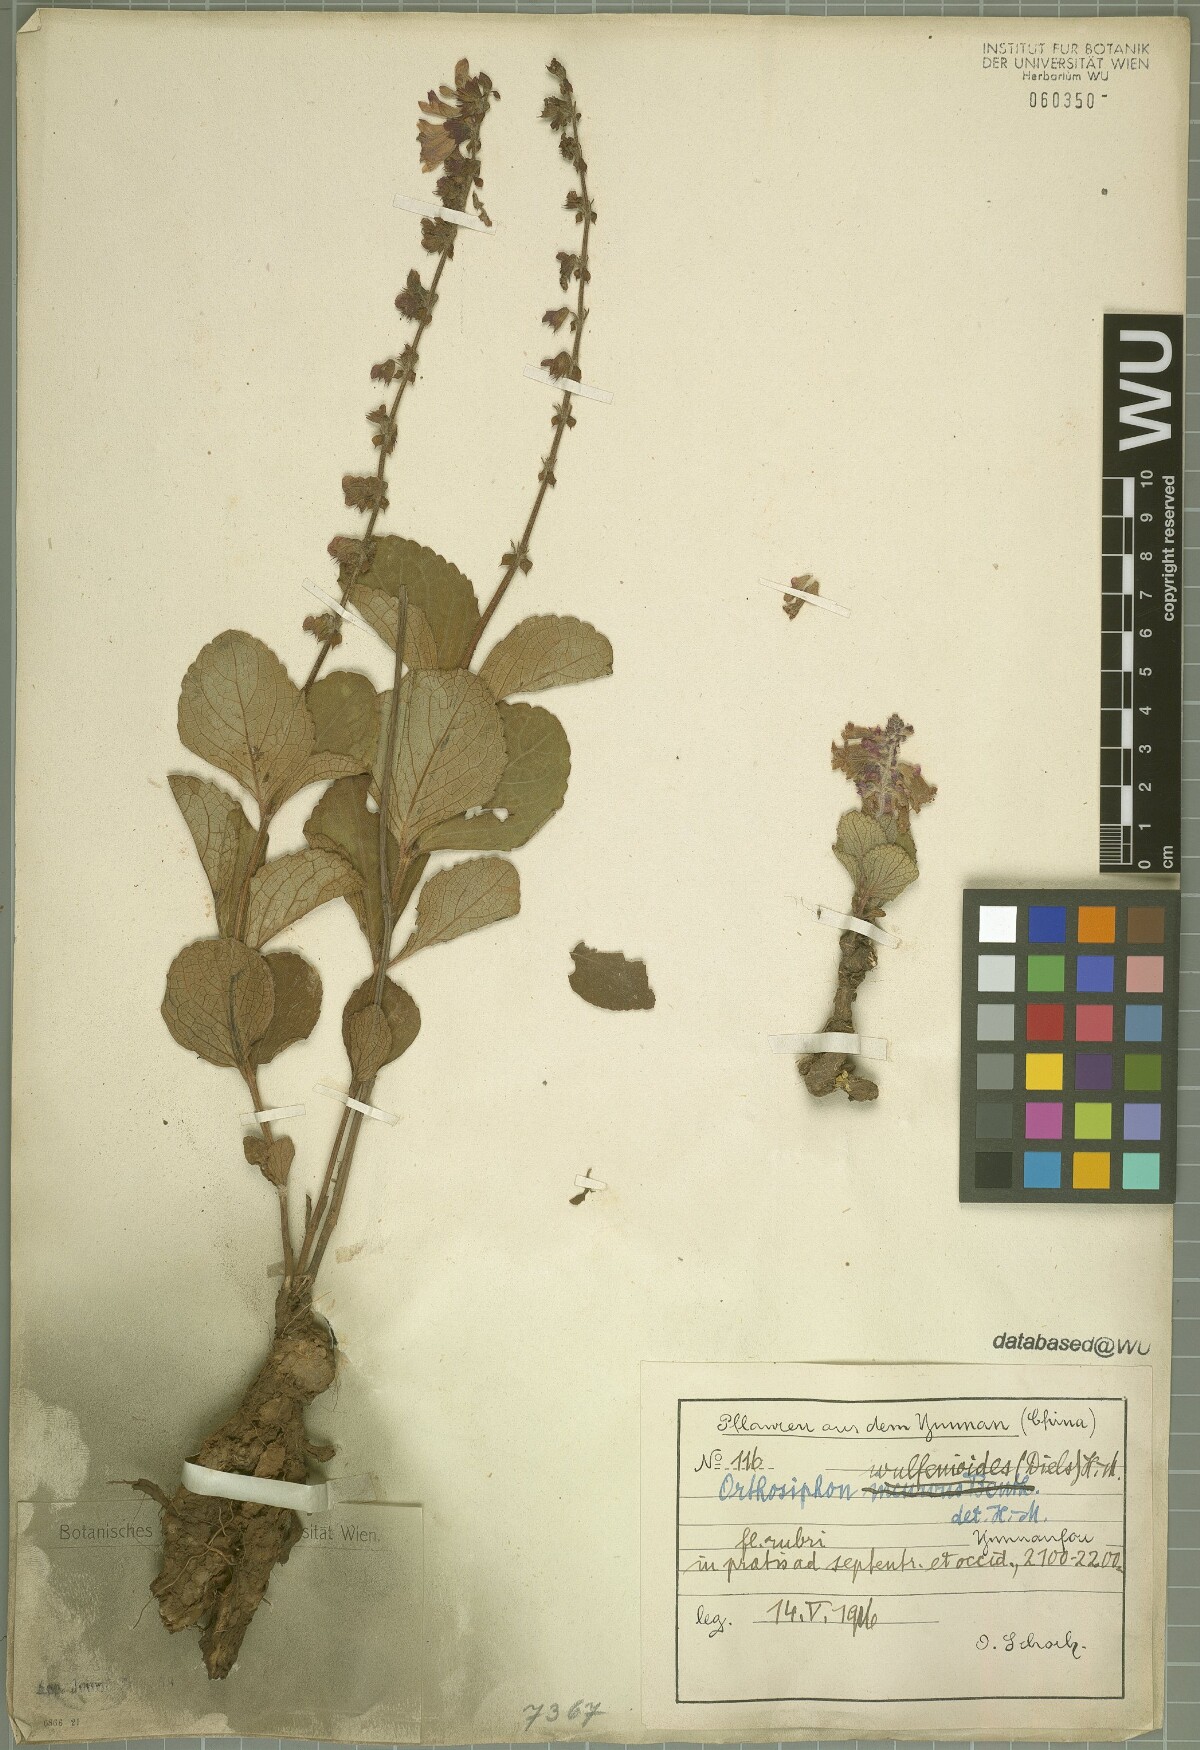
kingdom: Plantae
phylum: Tracheophyta
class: Magnoliopsida
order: Lamiales
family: Lamiaceae
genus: Orthosiphon
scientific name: Orthosiphon wulfenioides
